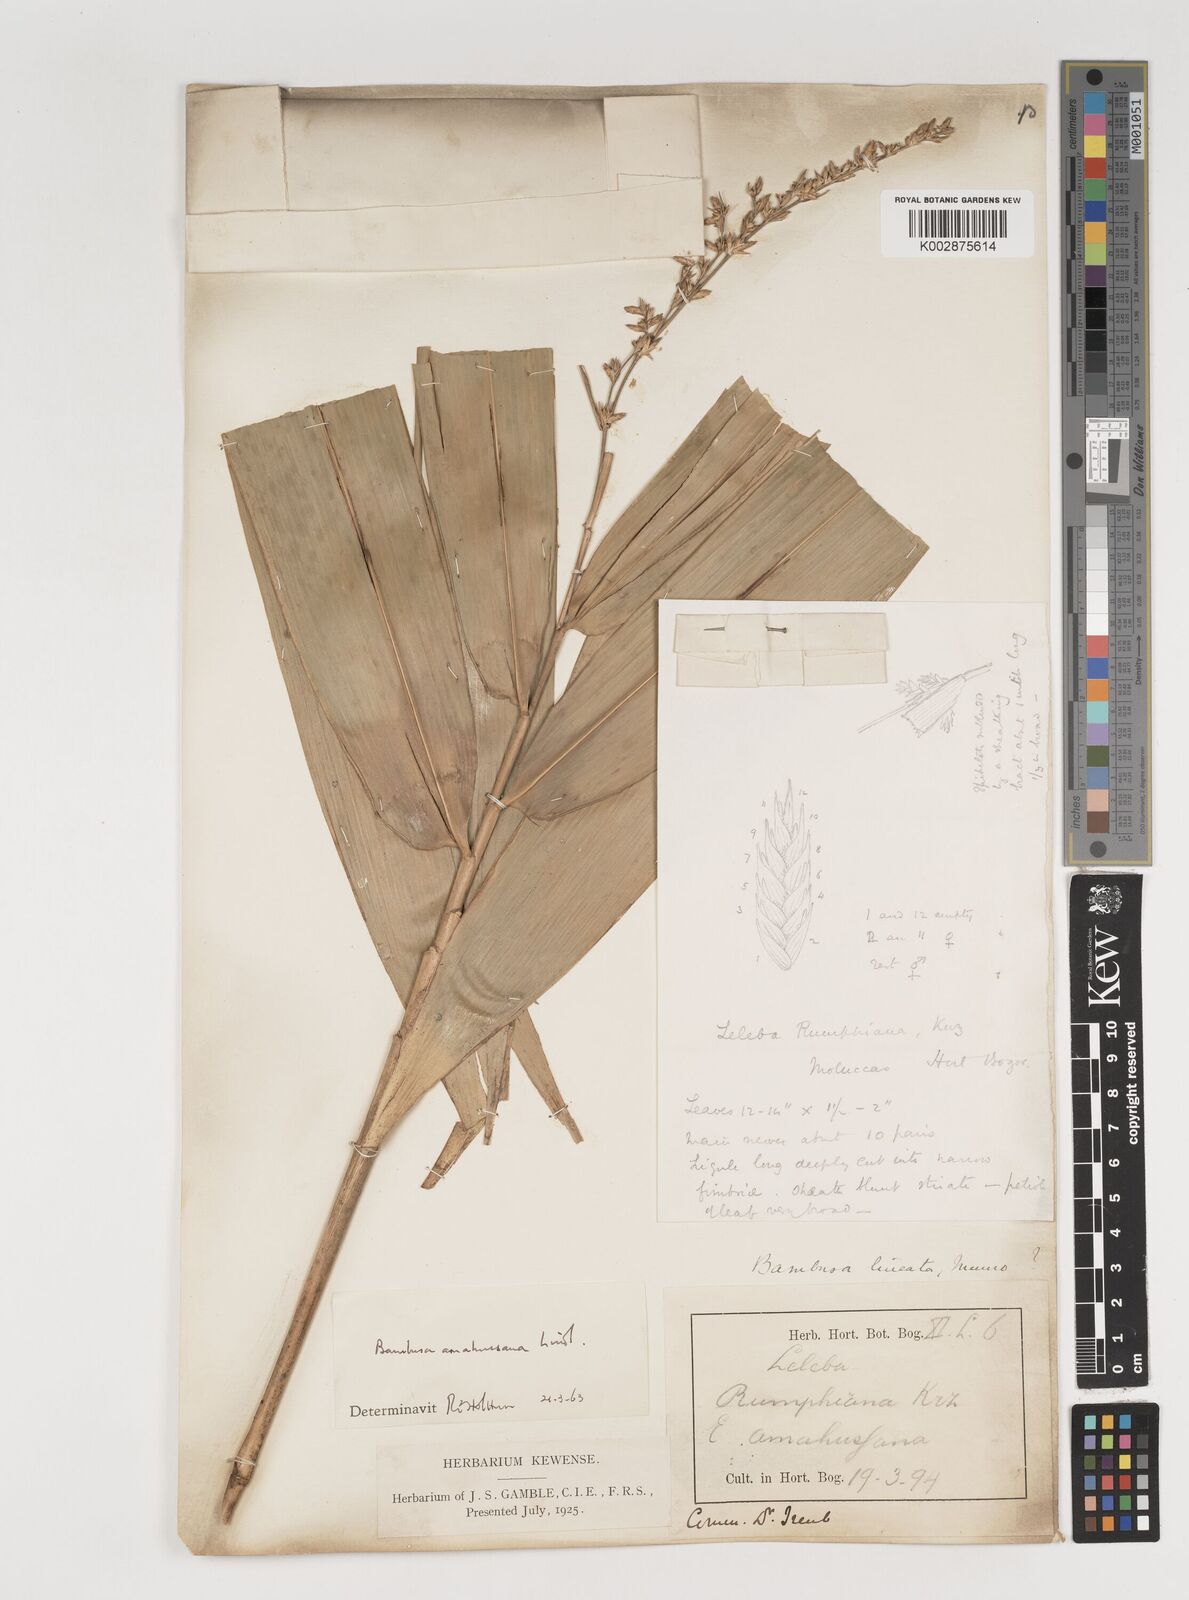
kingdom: Plantae
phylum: Tracheophyta
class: Liliopsida
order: Poales
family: Poaceae
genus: Neololeba
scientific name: Neololeba amahussana
